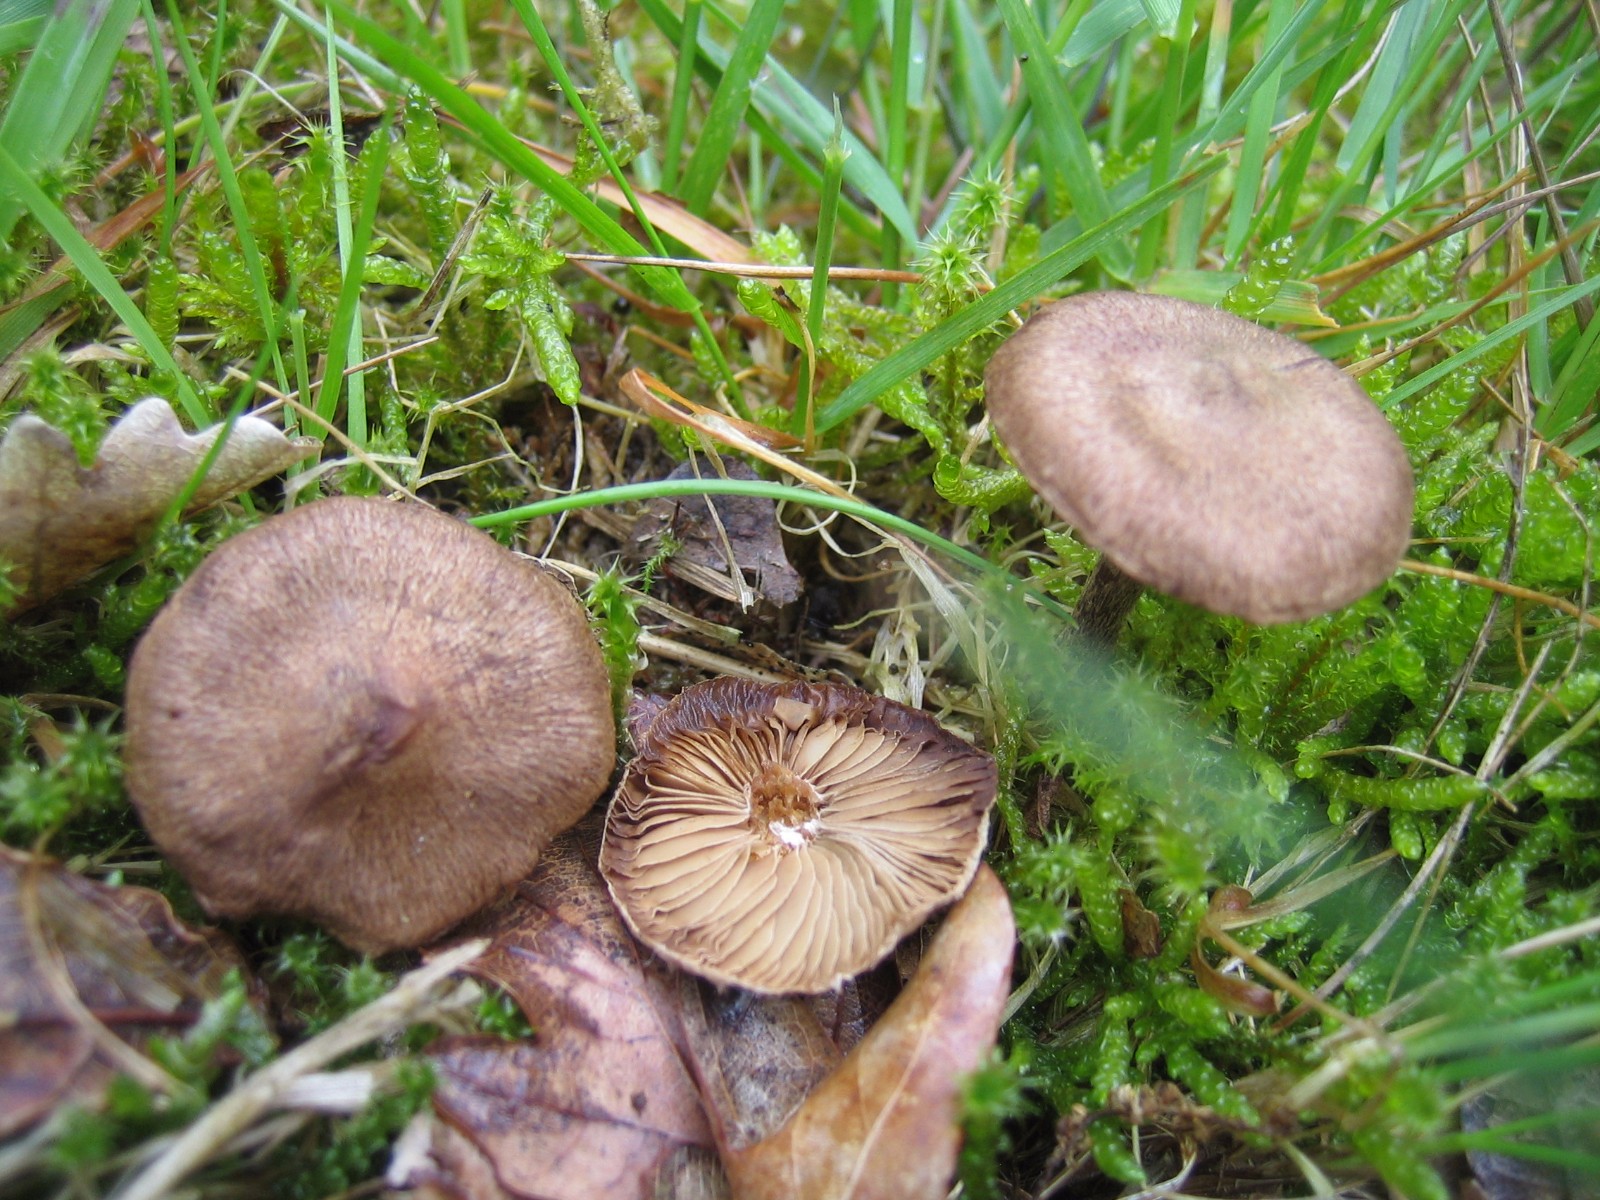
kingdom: Fungi
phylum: Basidiomycota
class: Agaricomycetes
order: Agaricales
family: Inocybaceae
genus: Inocybe
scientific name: Inocybe
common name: trævlhat
